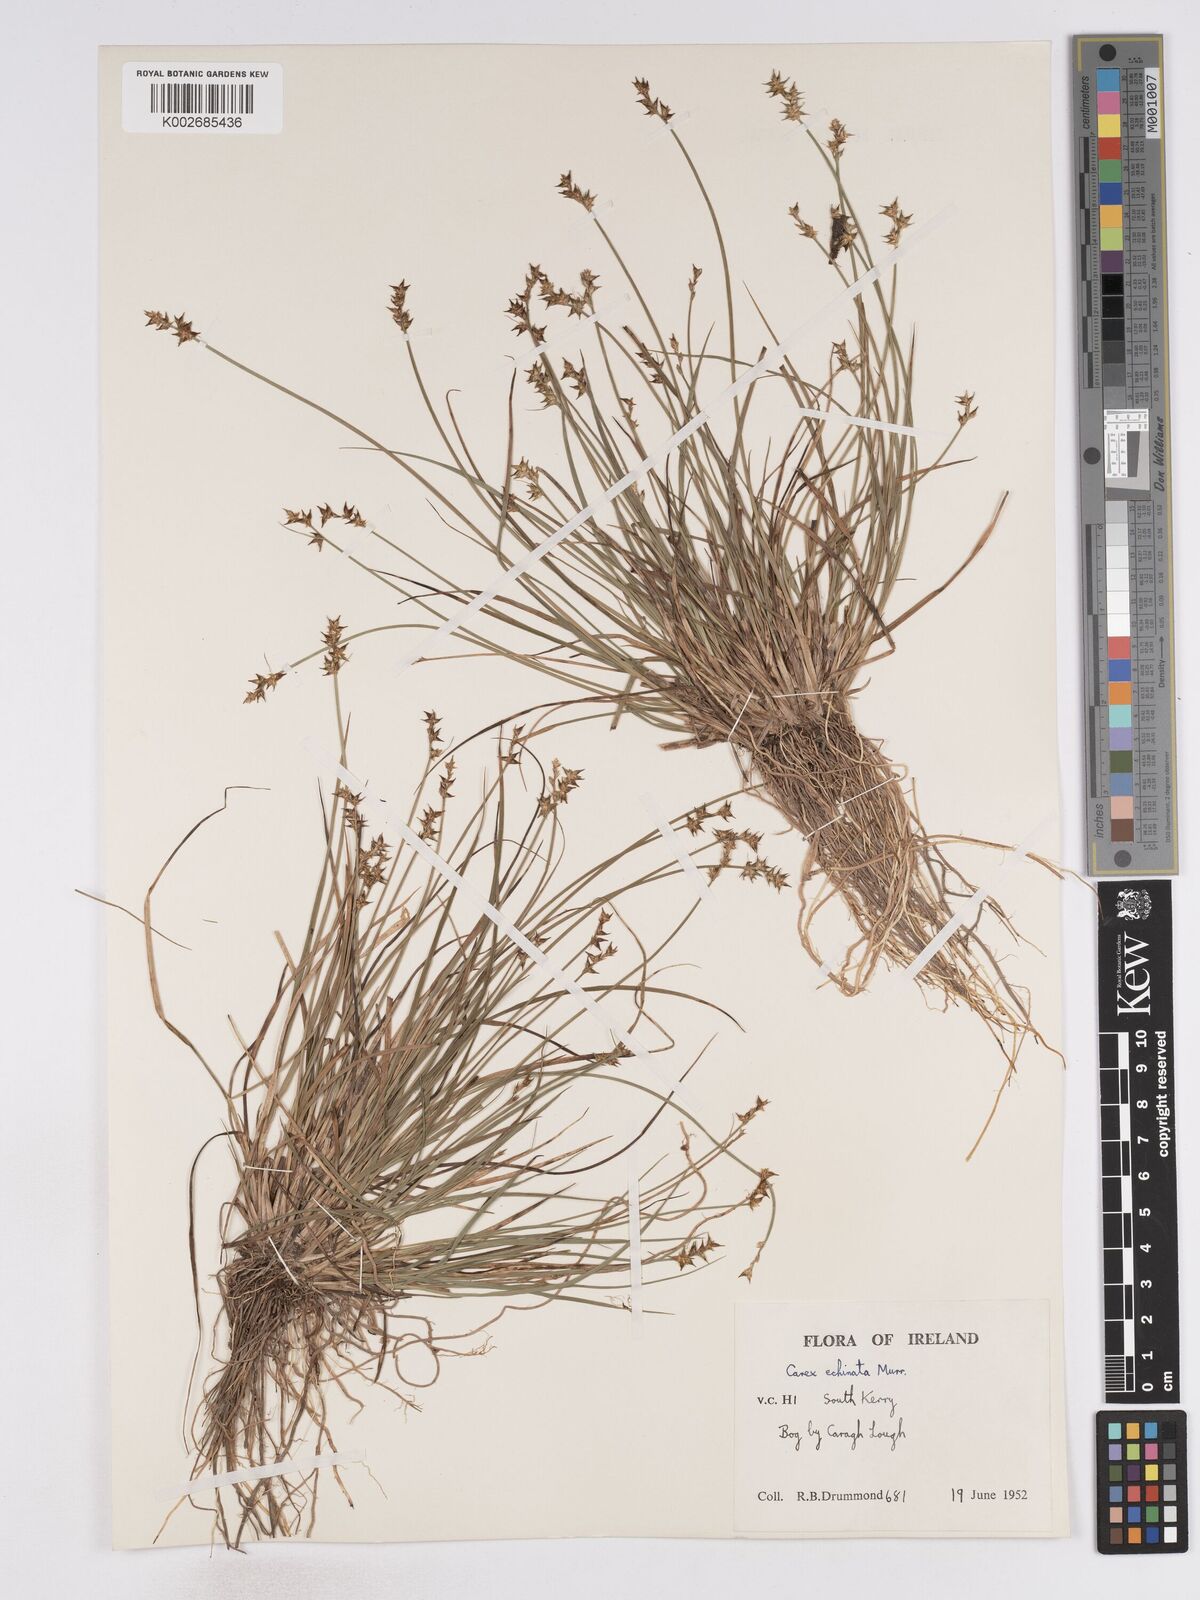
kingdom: Plantae
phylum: Tracheophyta
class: Liliopsida
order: Poales
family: Cyperaceae
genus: Carex
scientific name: Carex echinata
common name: Star sedge
